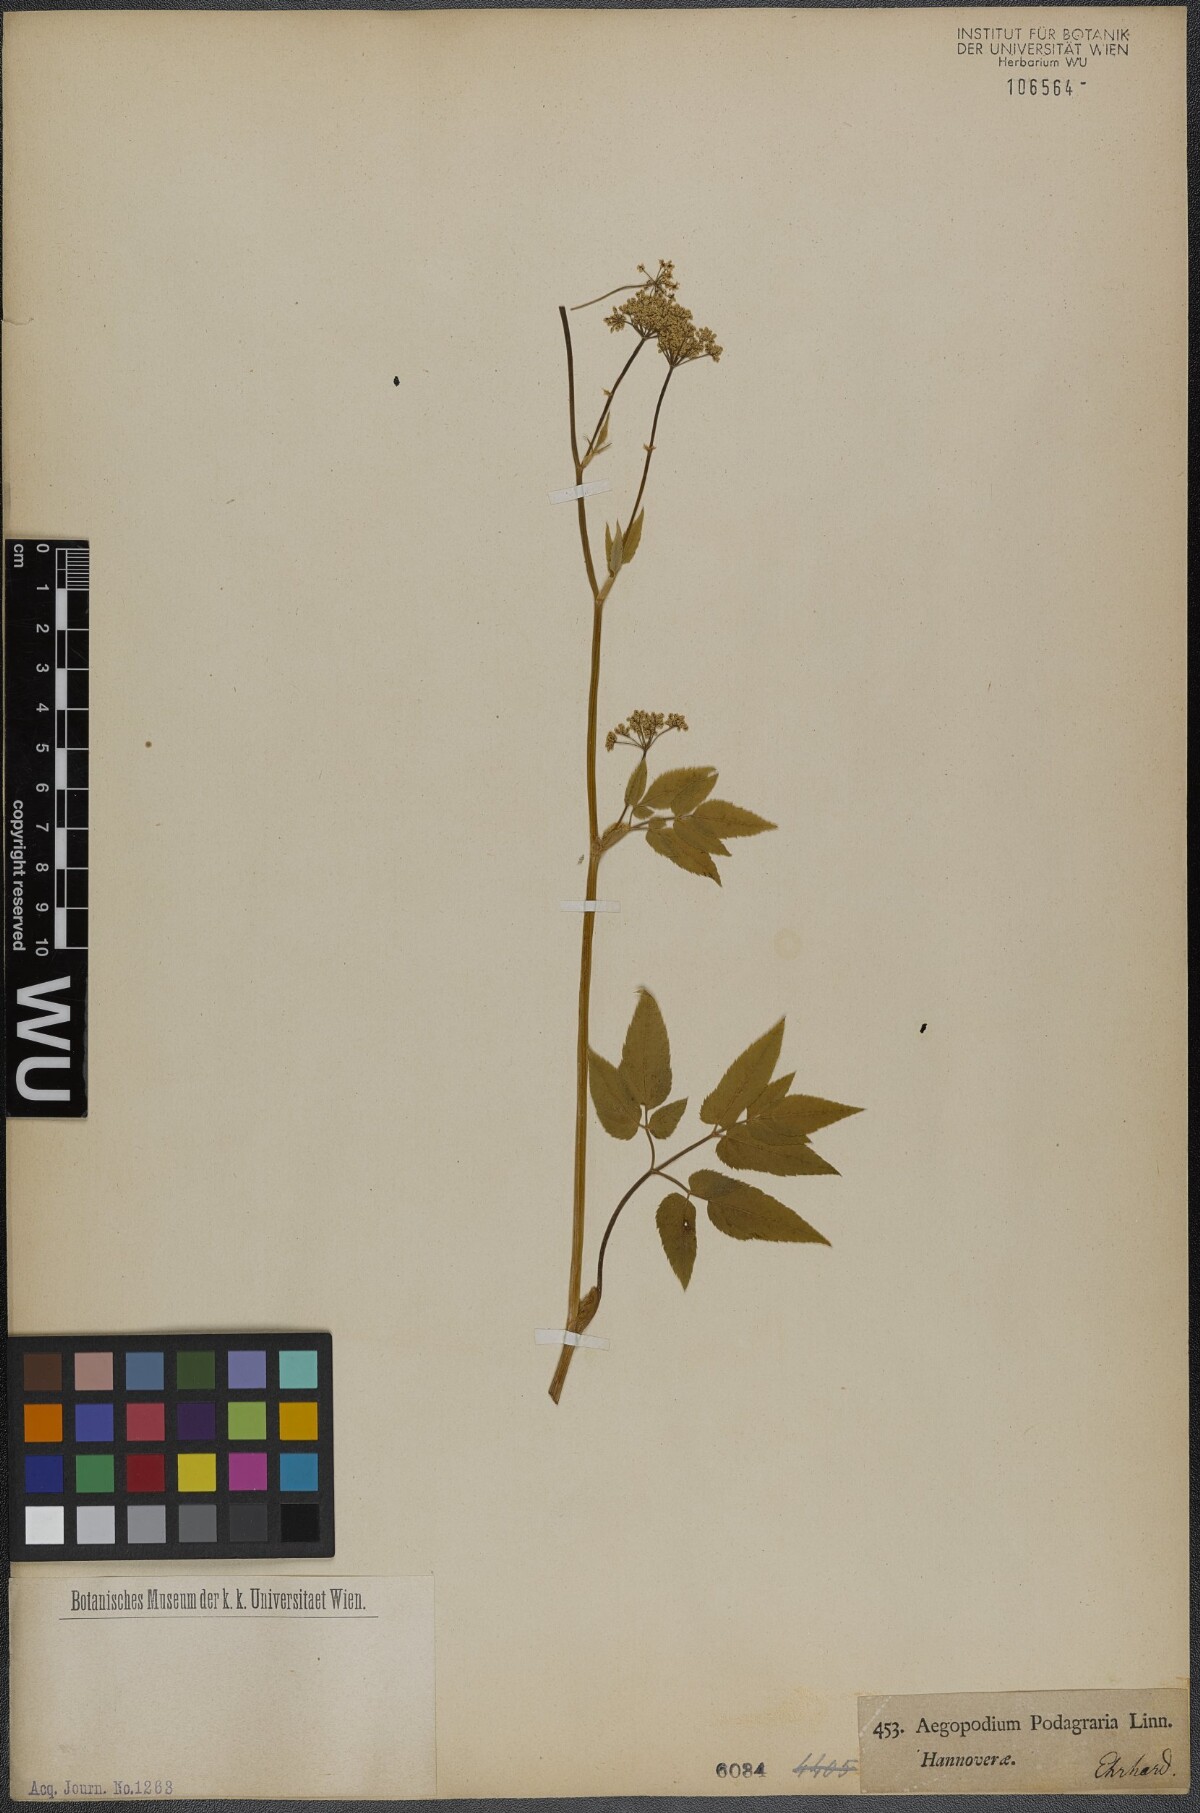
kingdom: Plantae
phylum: Tracheophyta
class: Magnoliopsida
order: Apiales
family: Apiaceae
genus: Aegopodium
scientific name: Aegopodium podagraria
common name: Ground-elder
